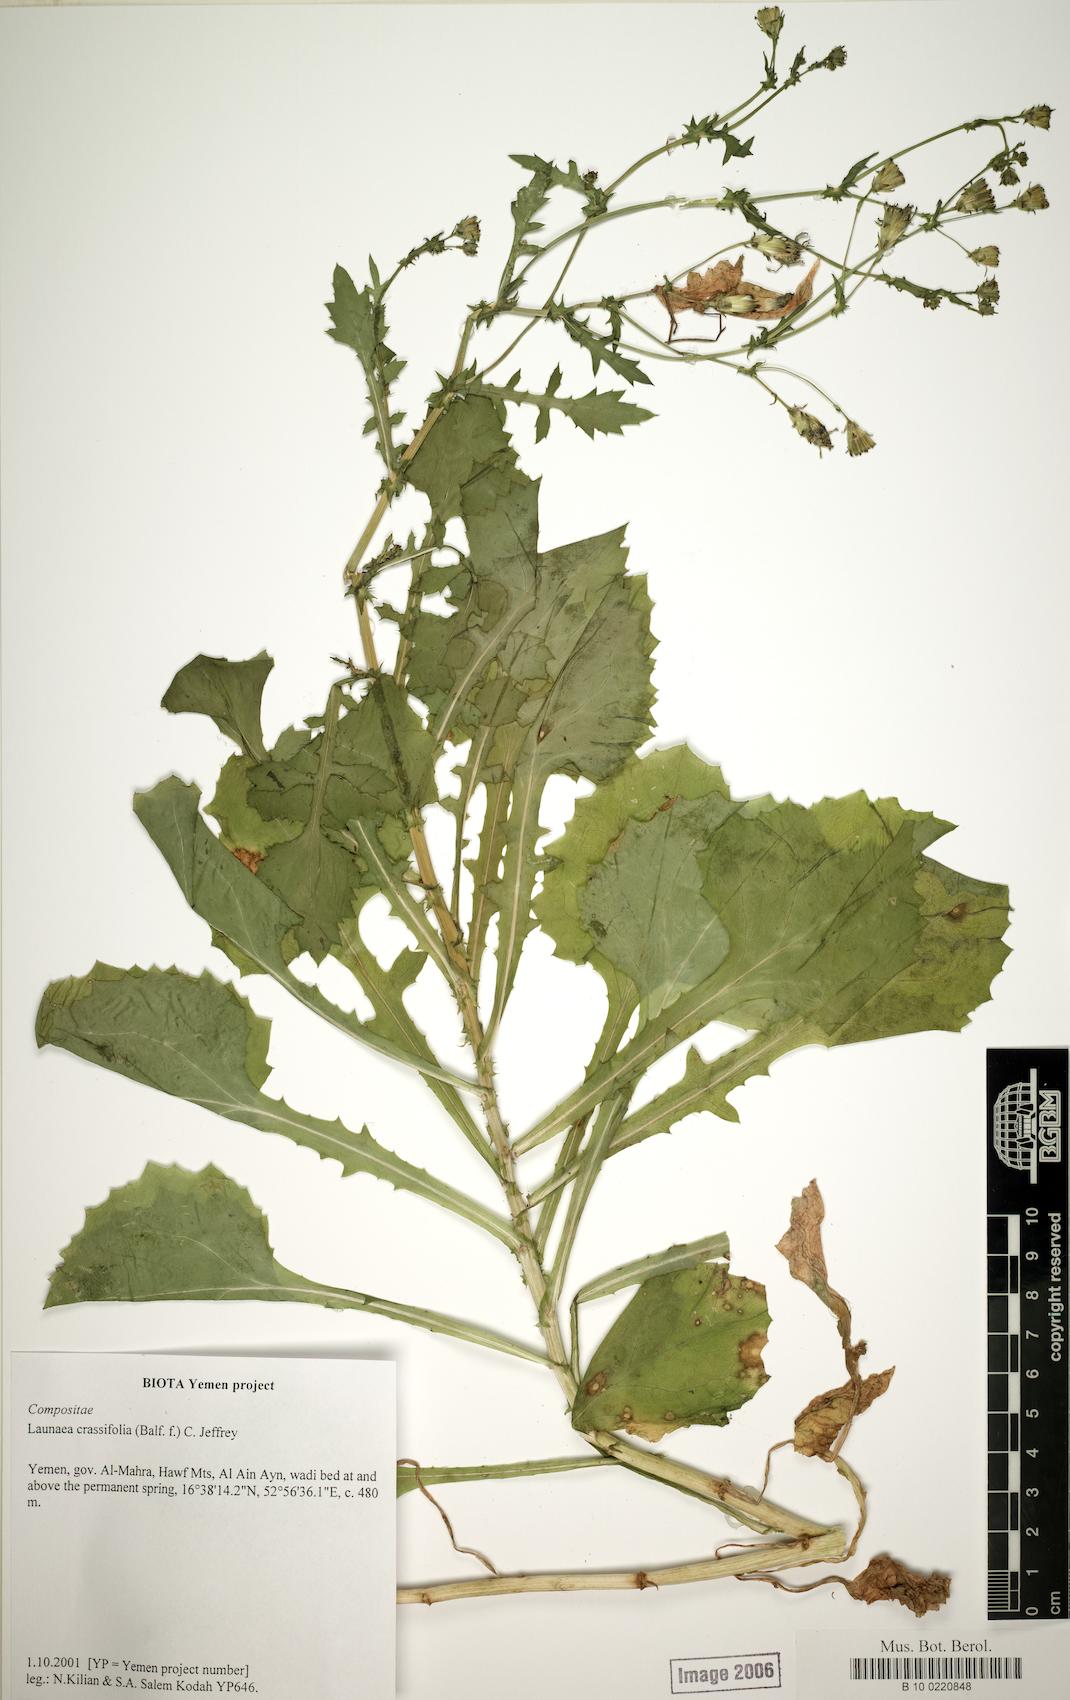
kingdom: Plantae
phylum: Tracheophyta
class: Magnoliopsida
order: Asterales
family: Asteraceae
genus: Launaea
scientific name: Launaea crassifolia
